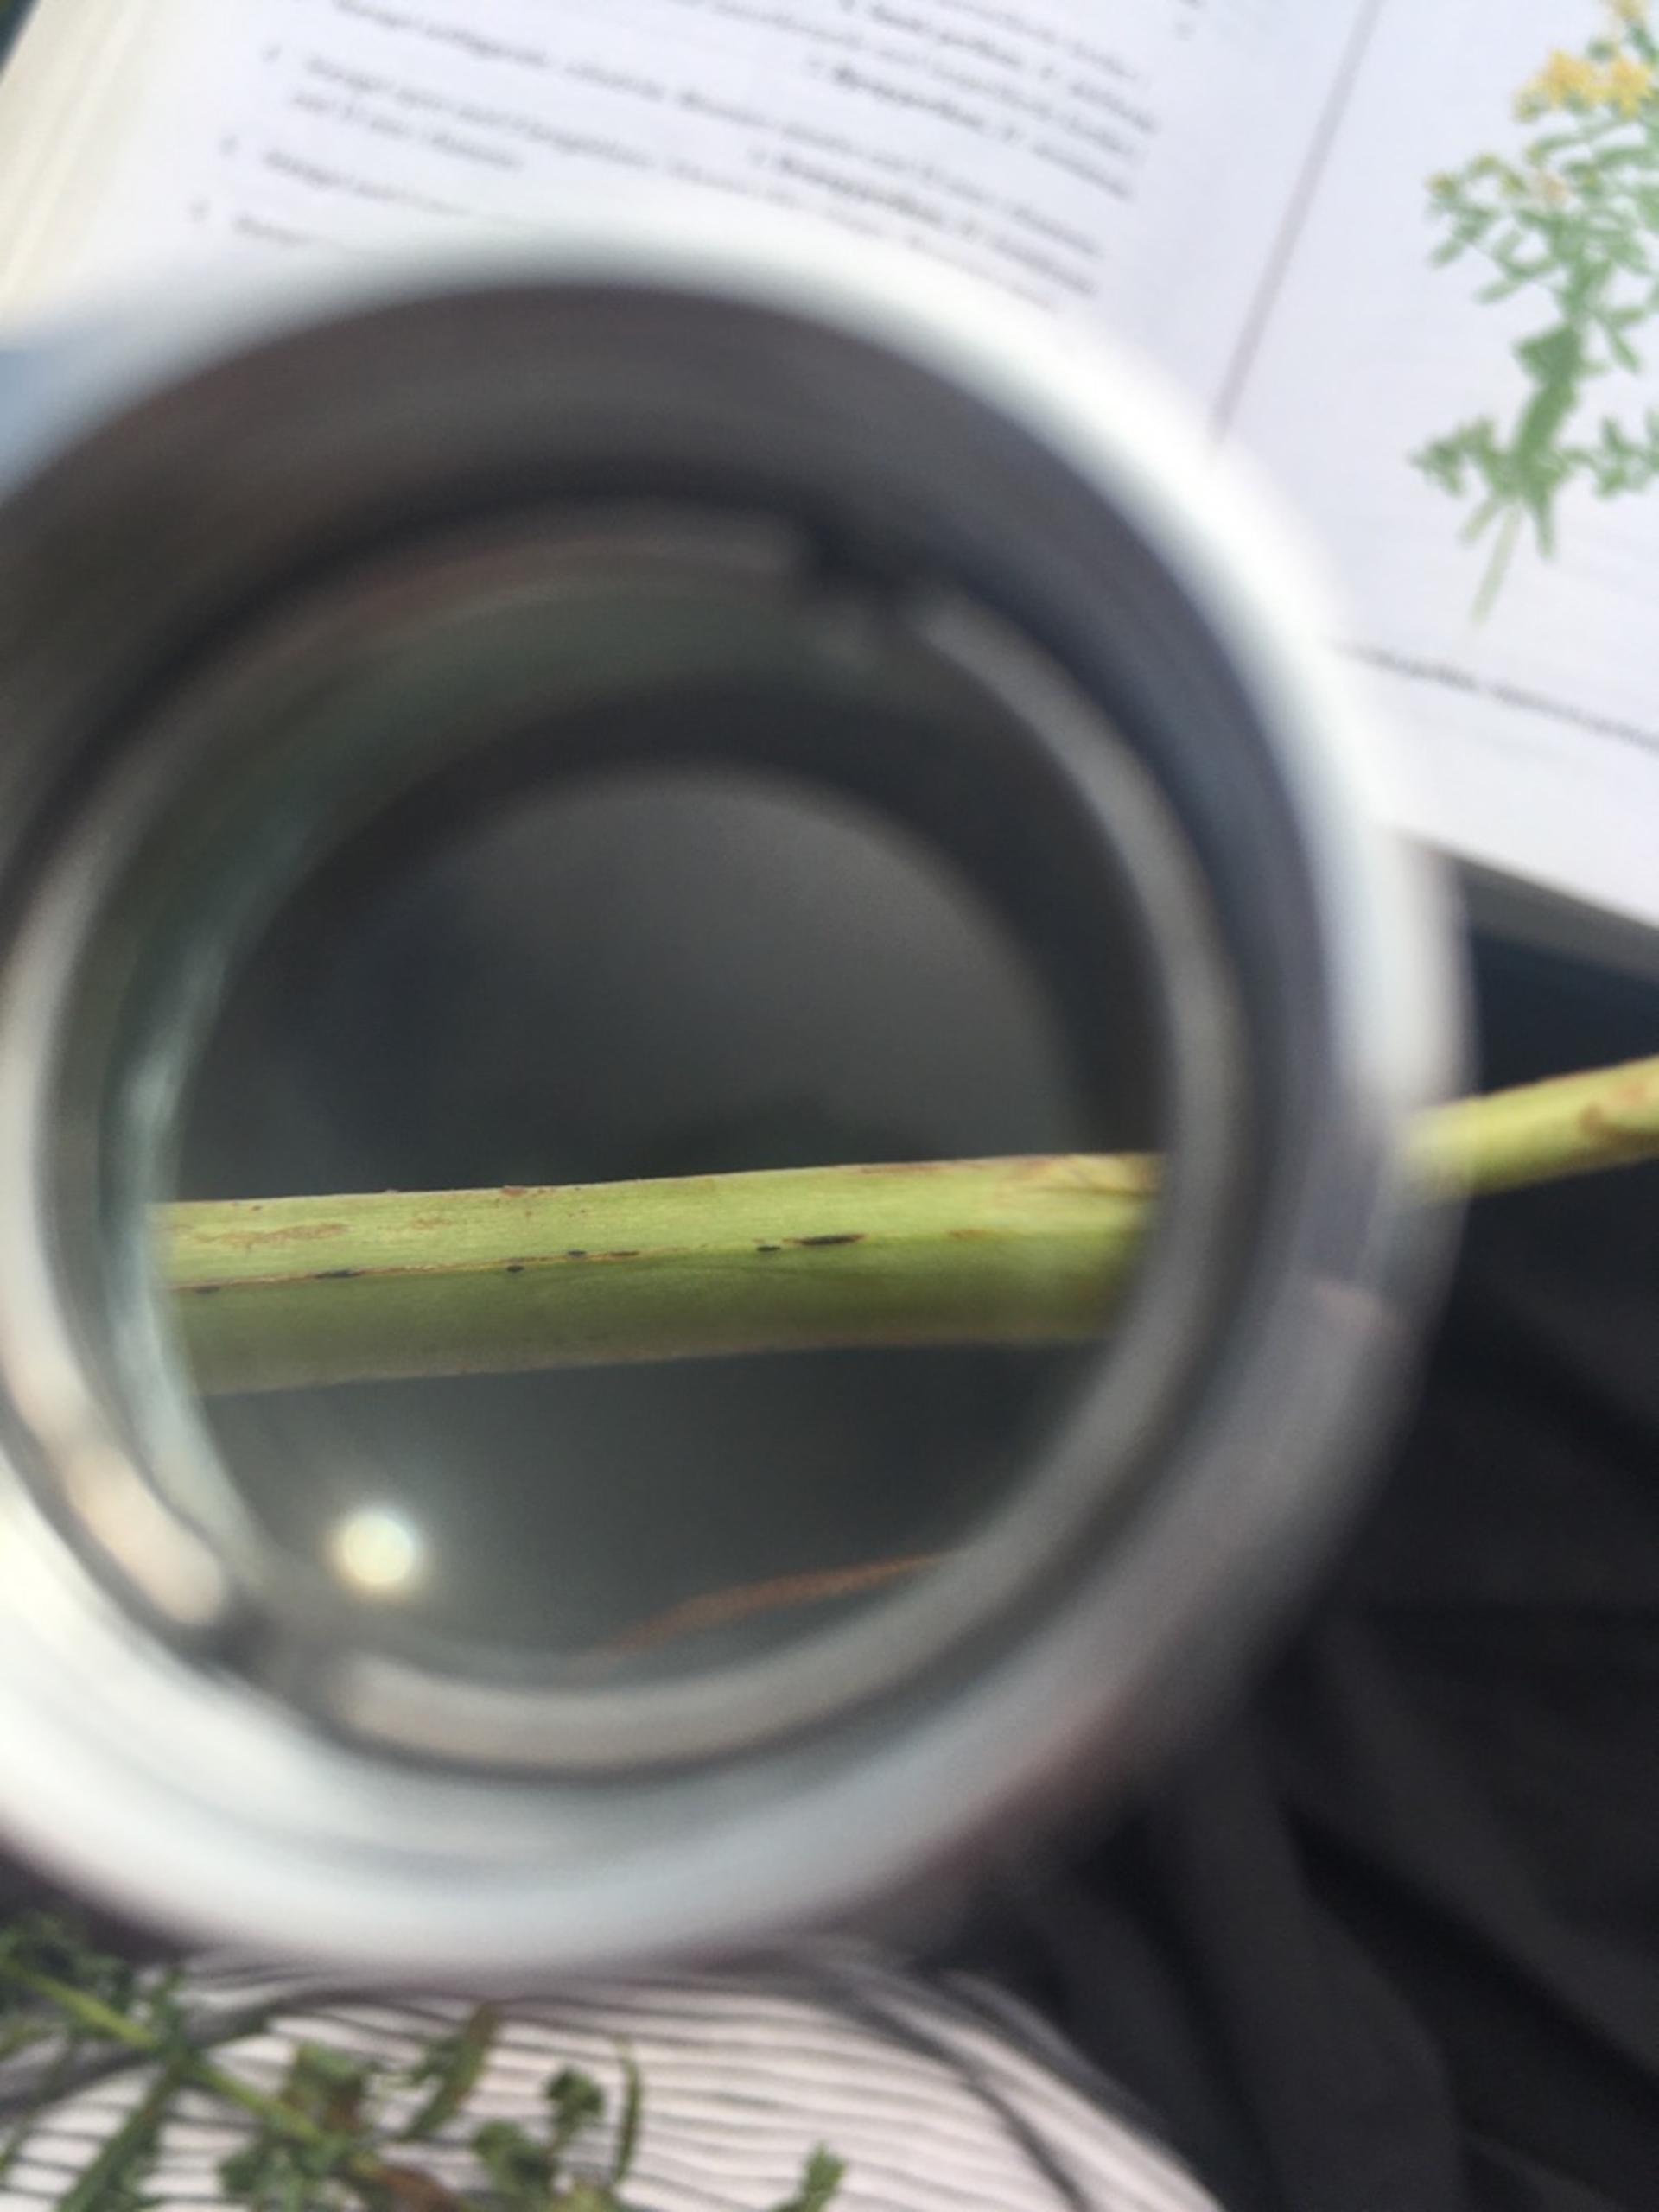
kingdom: Plantae
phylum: Tracheophyta
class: Magnoliopsida
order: Malpighiales
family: Hypericaceae
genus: Hypericum
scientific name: Hypericum perforatum
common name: Prikbladet perikon
